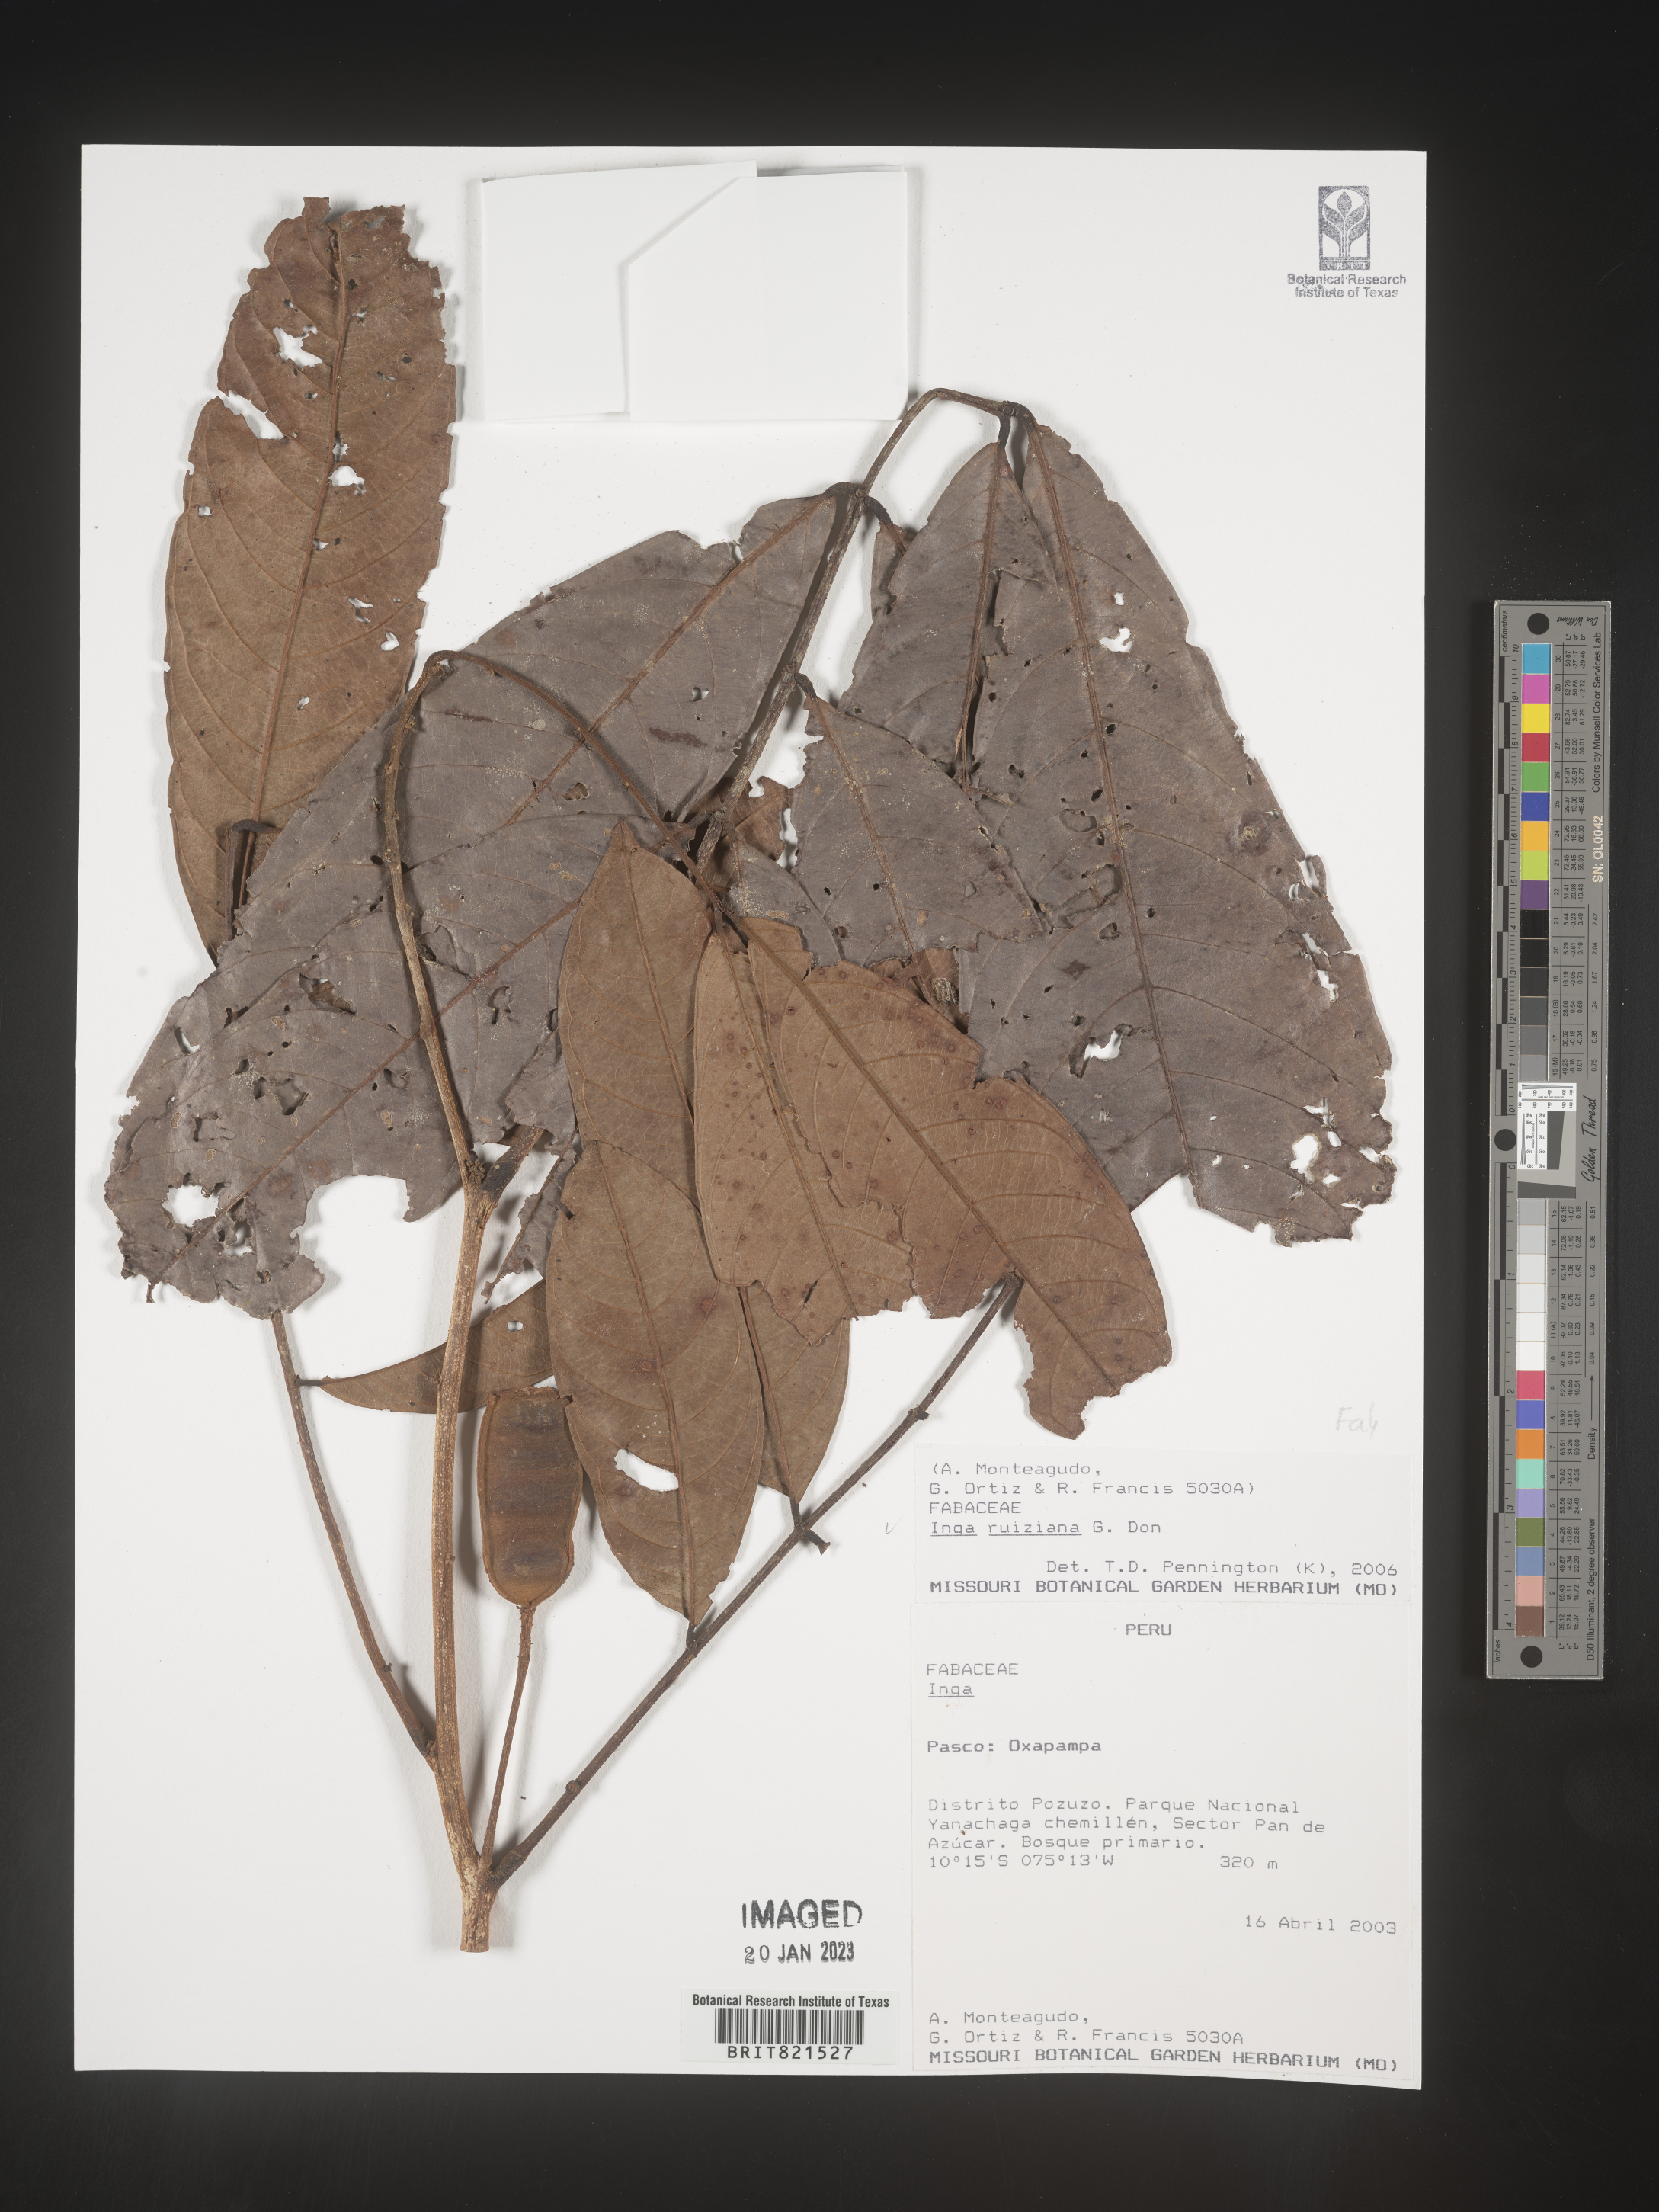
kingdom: Plantae
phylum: Tracheophyta
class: Magnoliopsida
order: Fabales
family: Fabaceae
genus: Inga
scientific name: Inga
